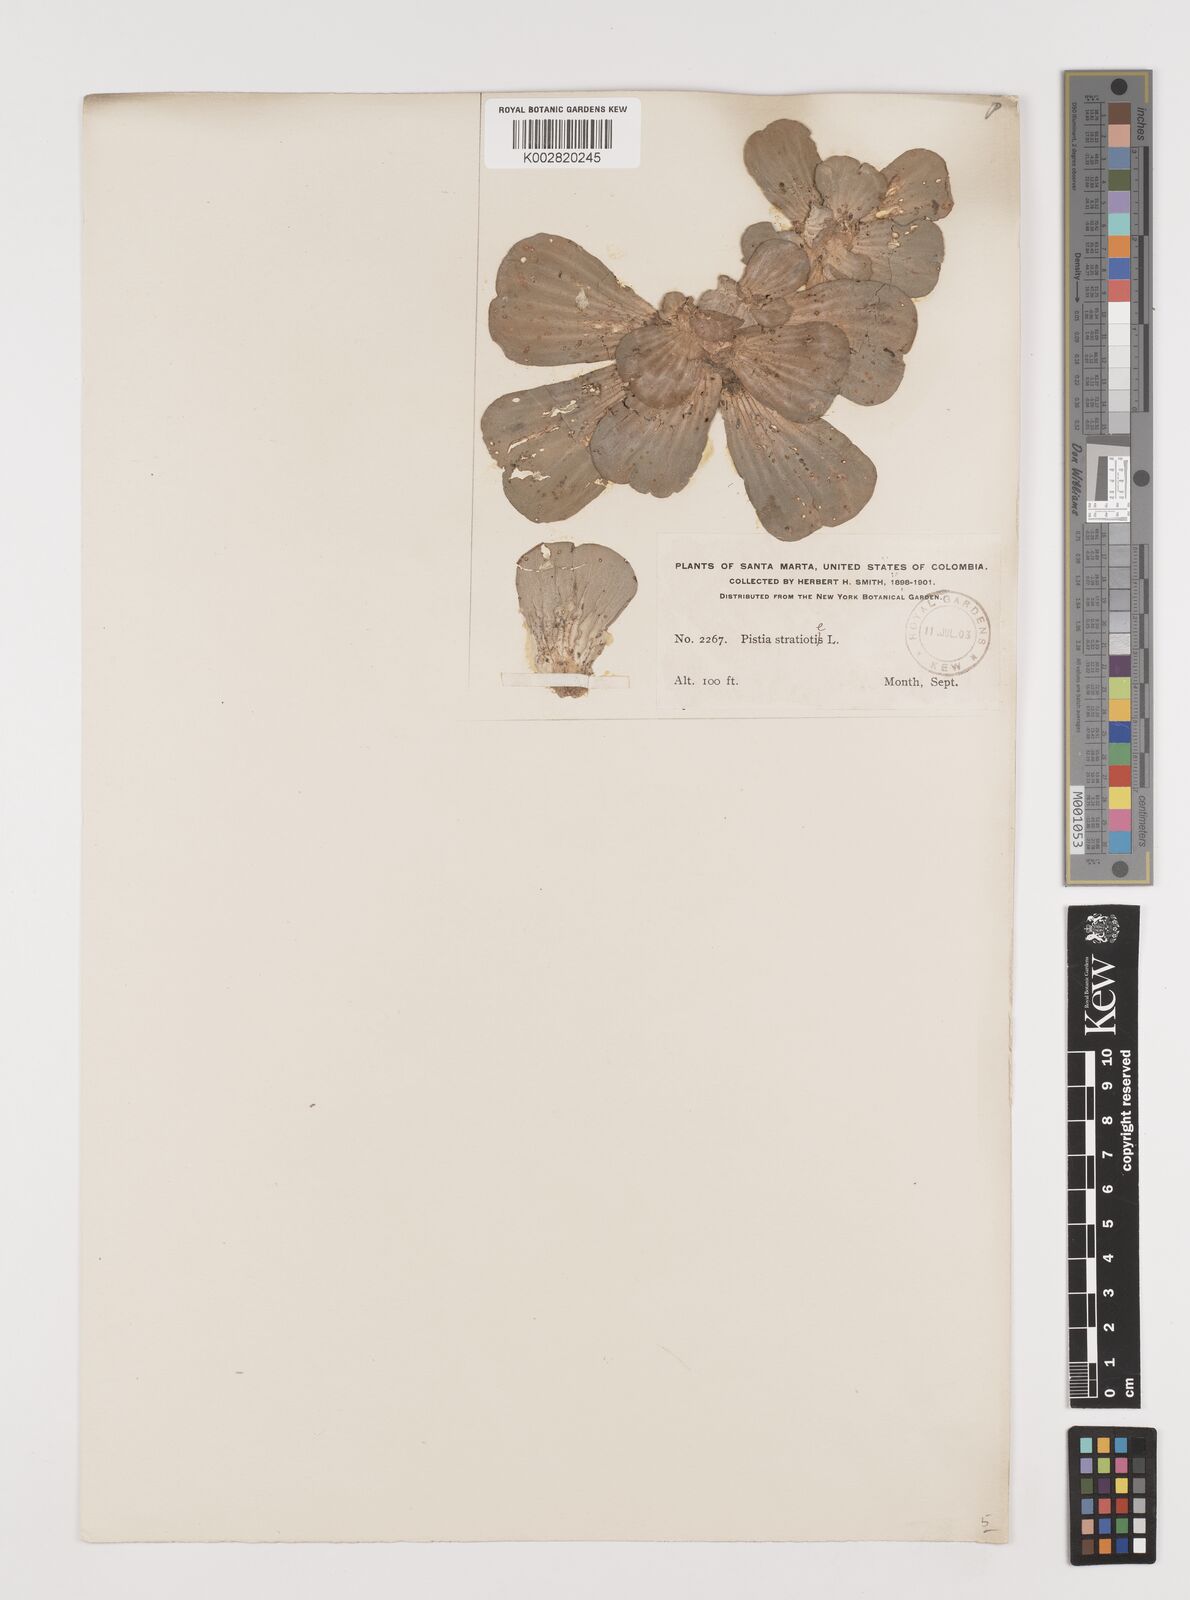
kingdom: Plantae
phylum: Tracheophyta
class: Liliopsida
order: Alismatales
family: Araceae
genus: Pistia
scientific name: Pistia stratiotes
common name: Water lettuce
